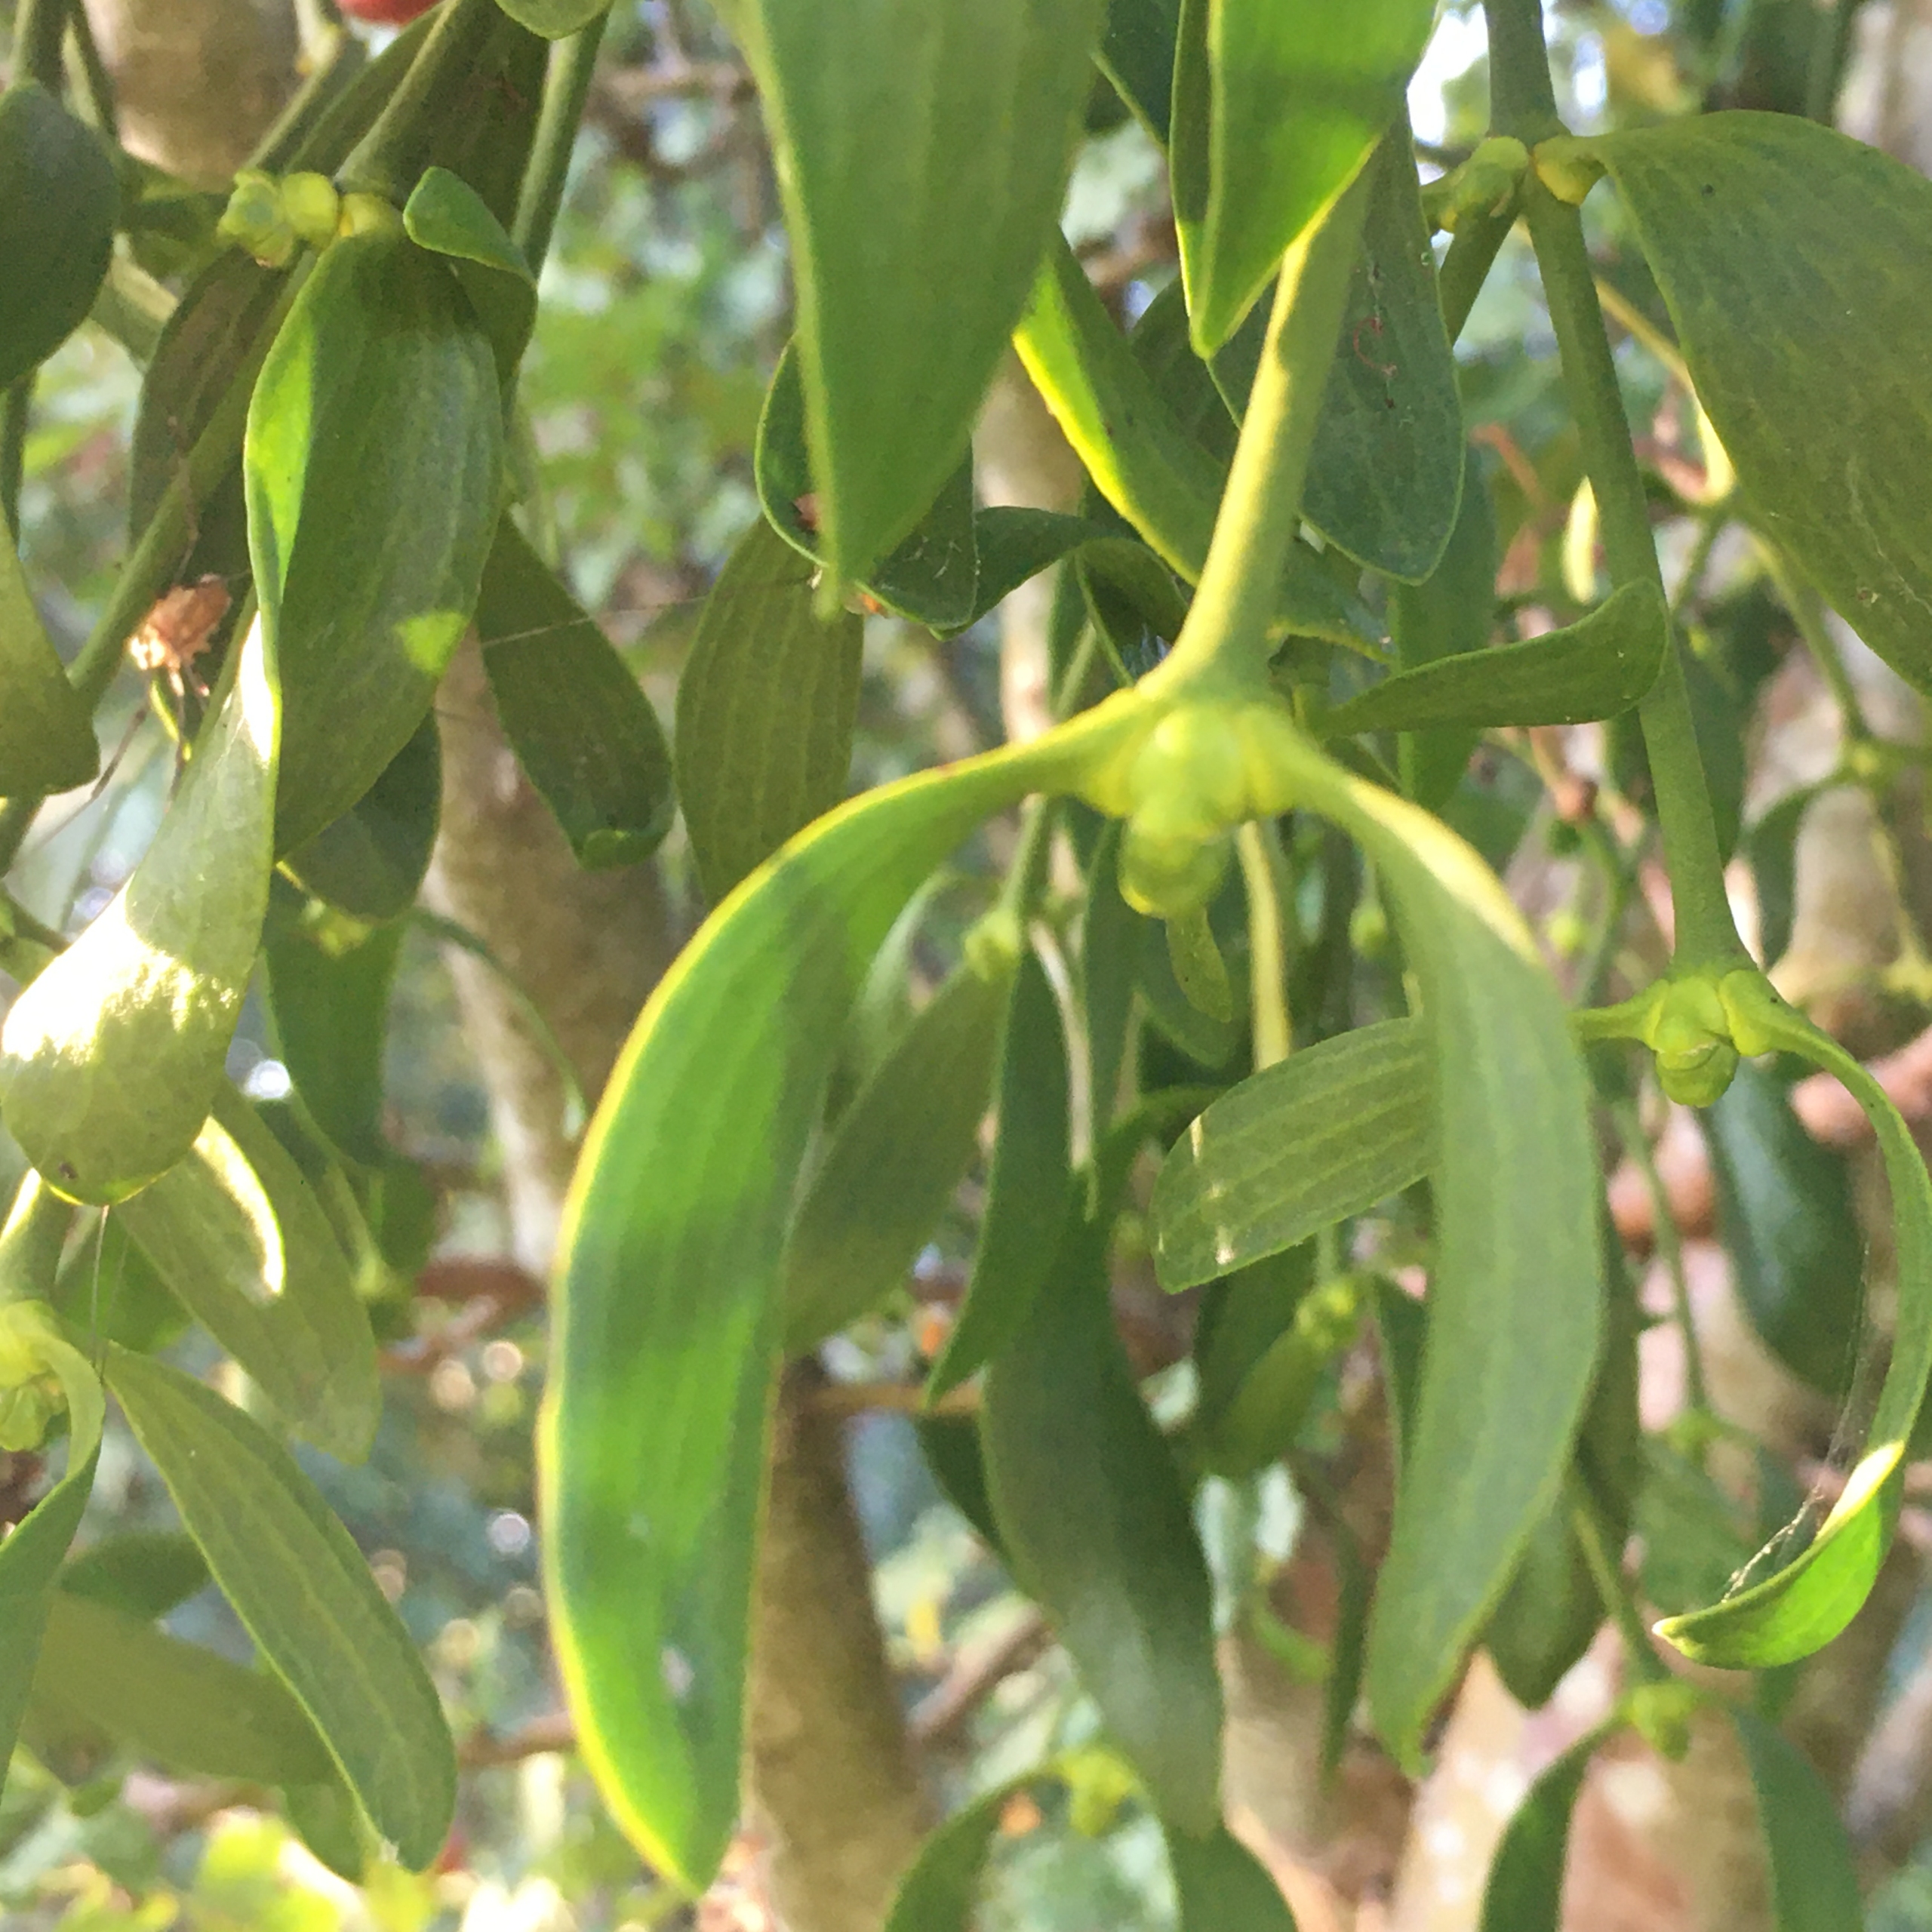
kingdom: Plantae
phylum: Tracheophyta
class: Magnoliopsida
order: Santalales
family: Viscaceae
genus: Viscum
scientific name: Viscum album
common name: Mistelten
